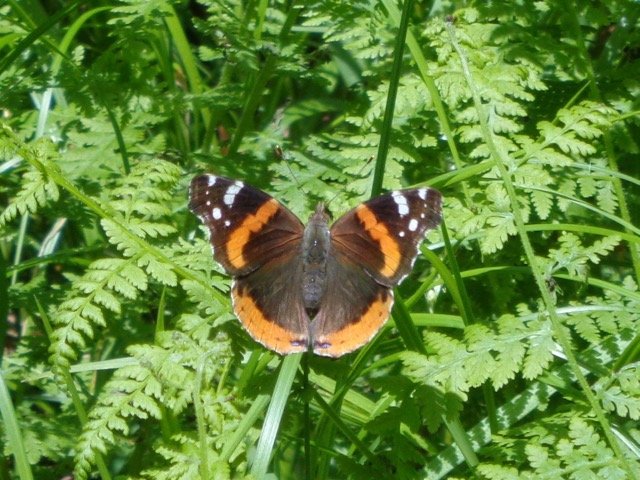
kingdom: Animalia
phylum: Arthropoda
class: Insecta
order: Lepidoptera
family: Nymphalidae
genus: Vanessa
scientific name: Vanessa atalanta
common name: Red Admiral
